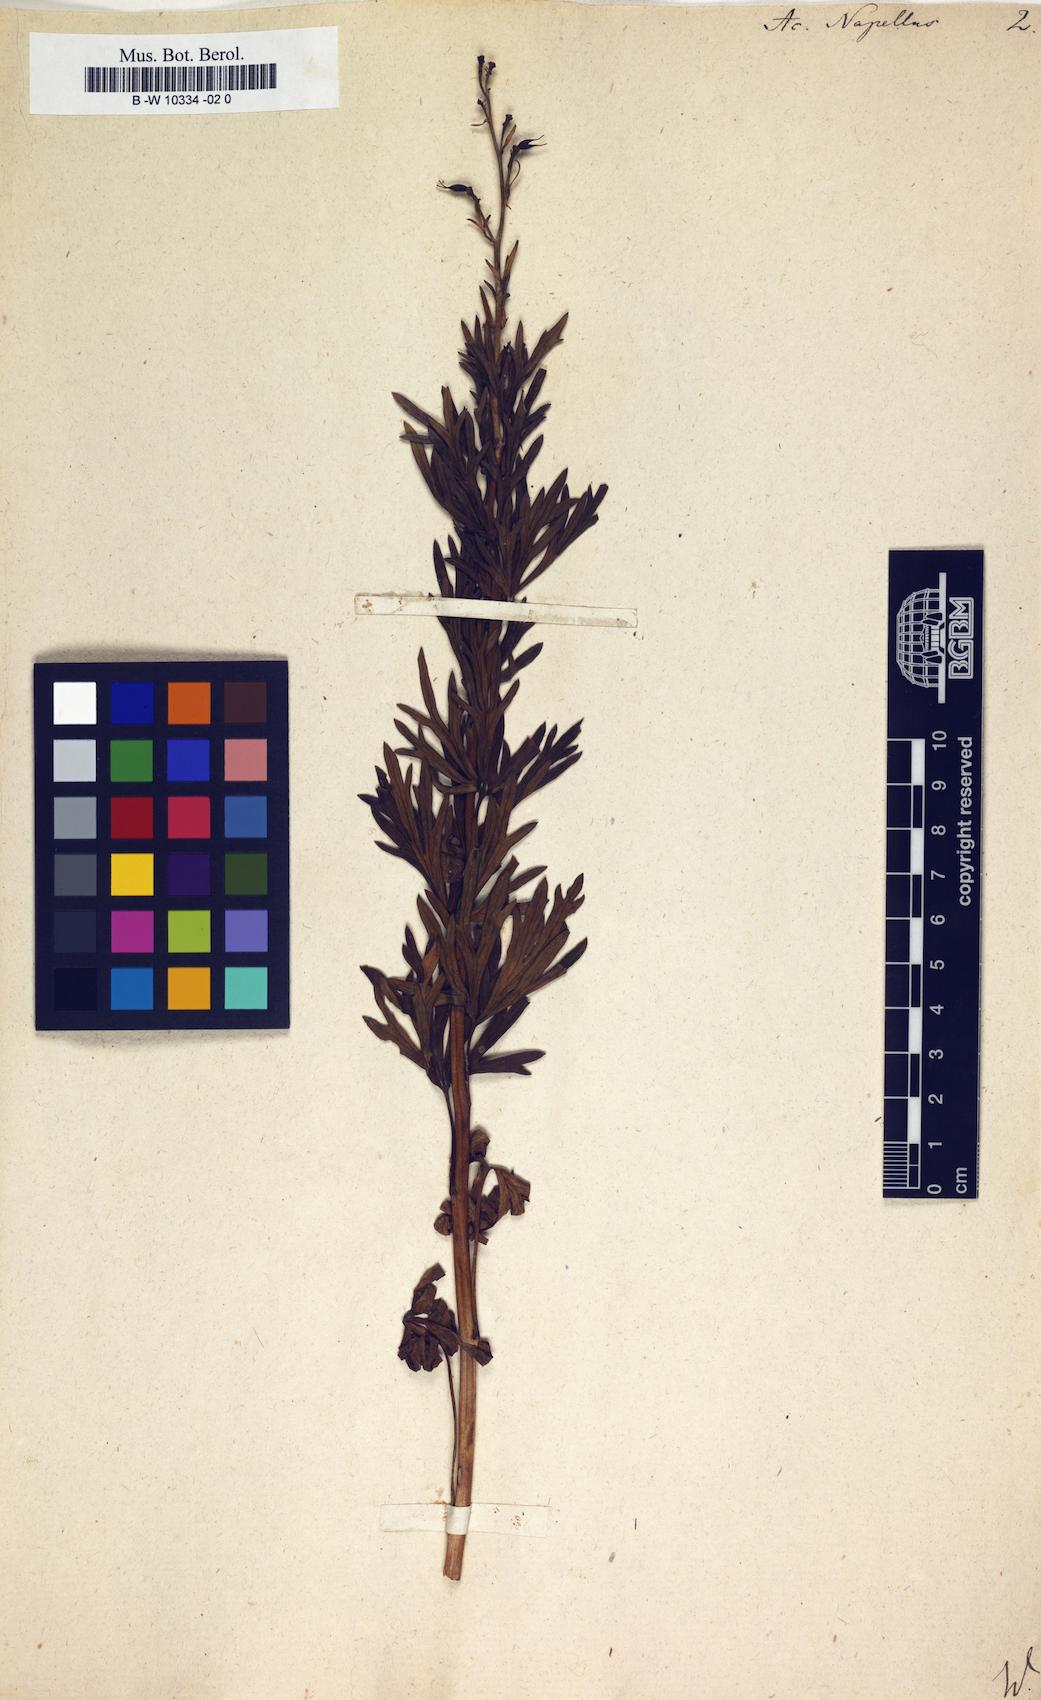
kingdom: Plantae
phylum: Tracheophyta
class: Magnoliopsida
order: Ranunculales
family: Ranunculaceae
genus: Aconitum
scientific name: Aconitum napellus
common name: Garden monkshood
